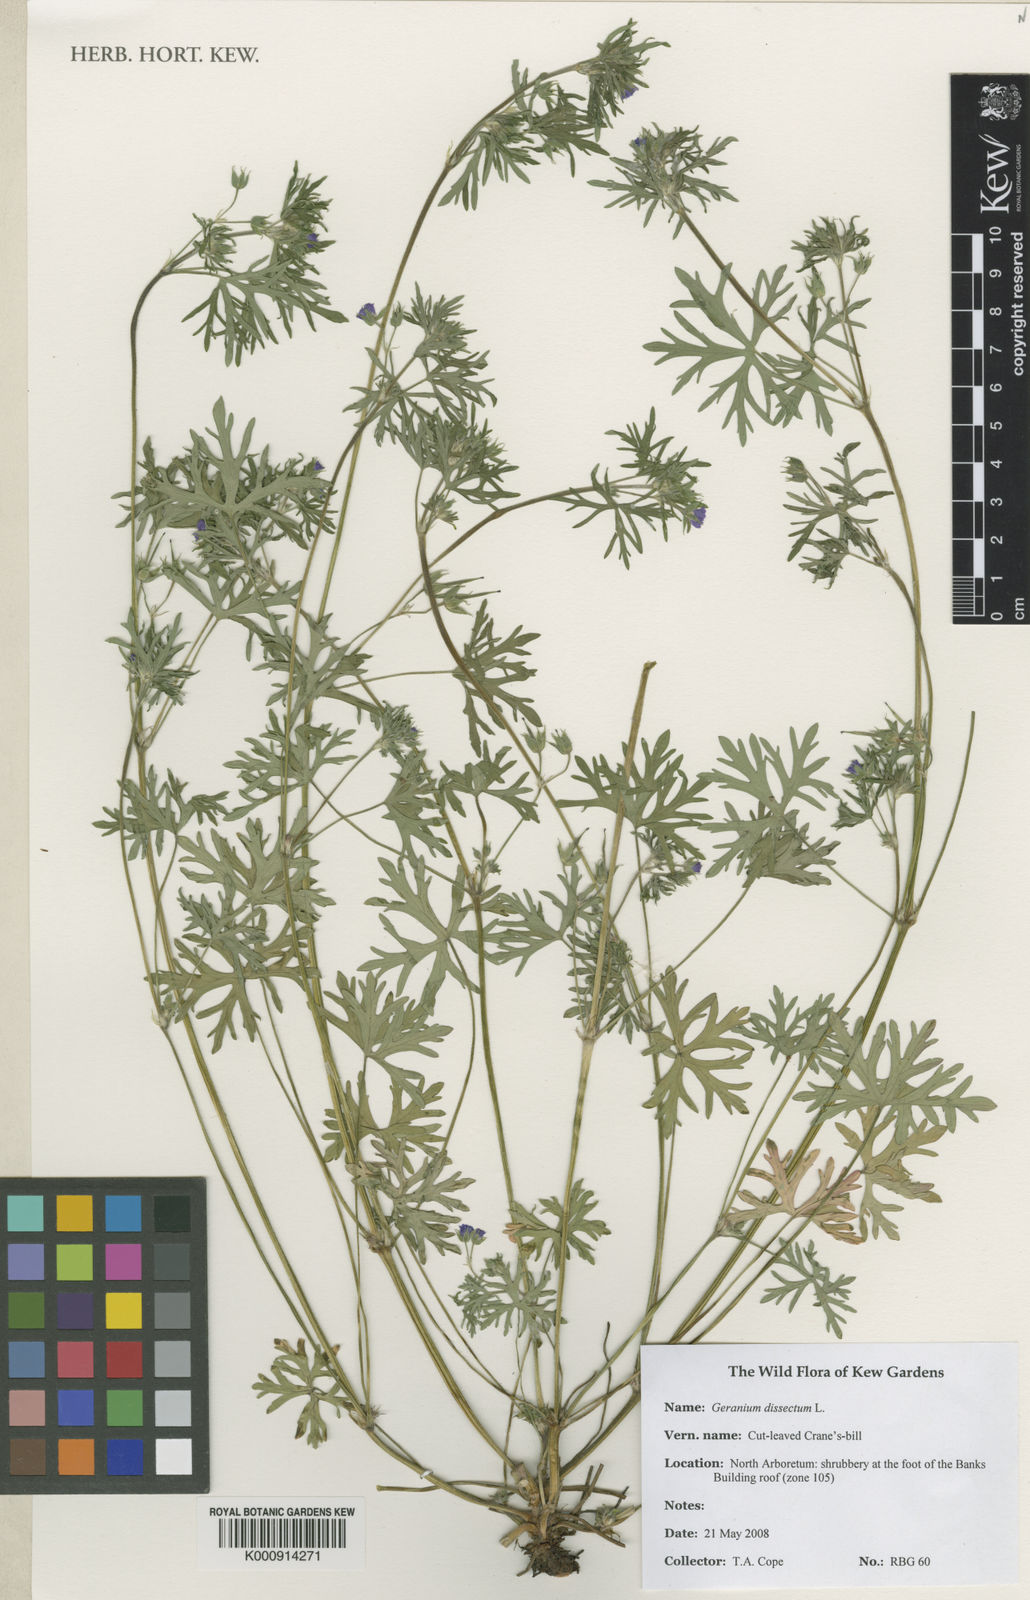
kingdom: Plantae
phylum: Tracheophyta
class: Magnoliopsida
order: Geraniales
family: Geraniaceae
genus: Geranium
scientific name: Geranium dissectum
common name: Cut-leaved crane's-bill
